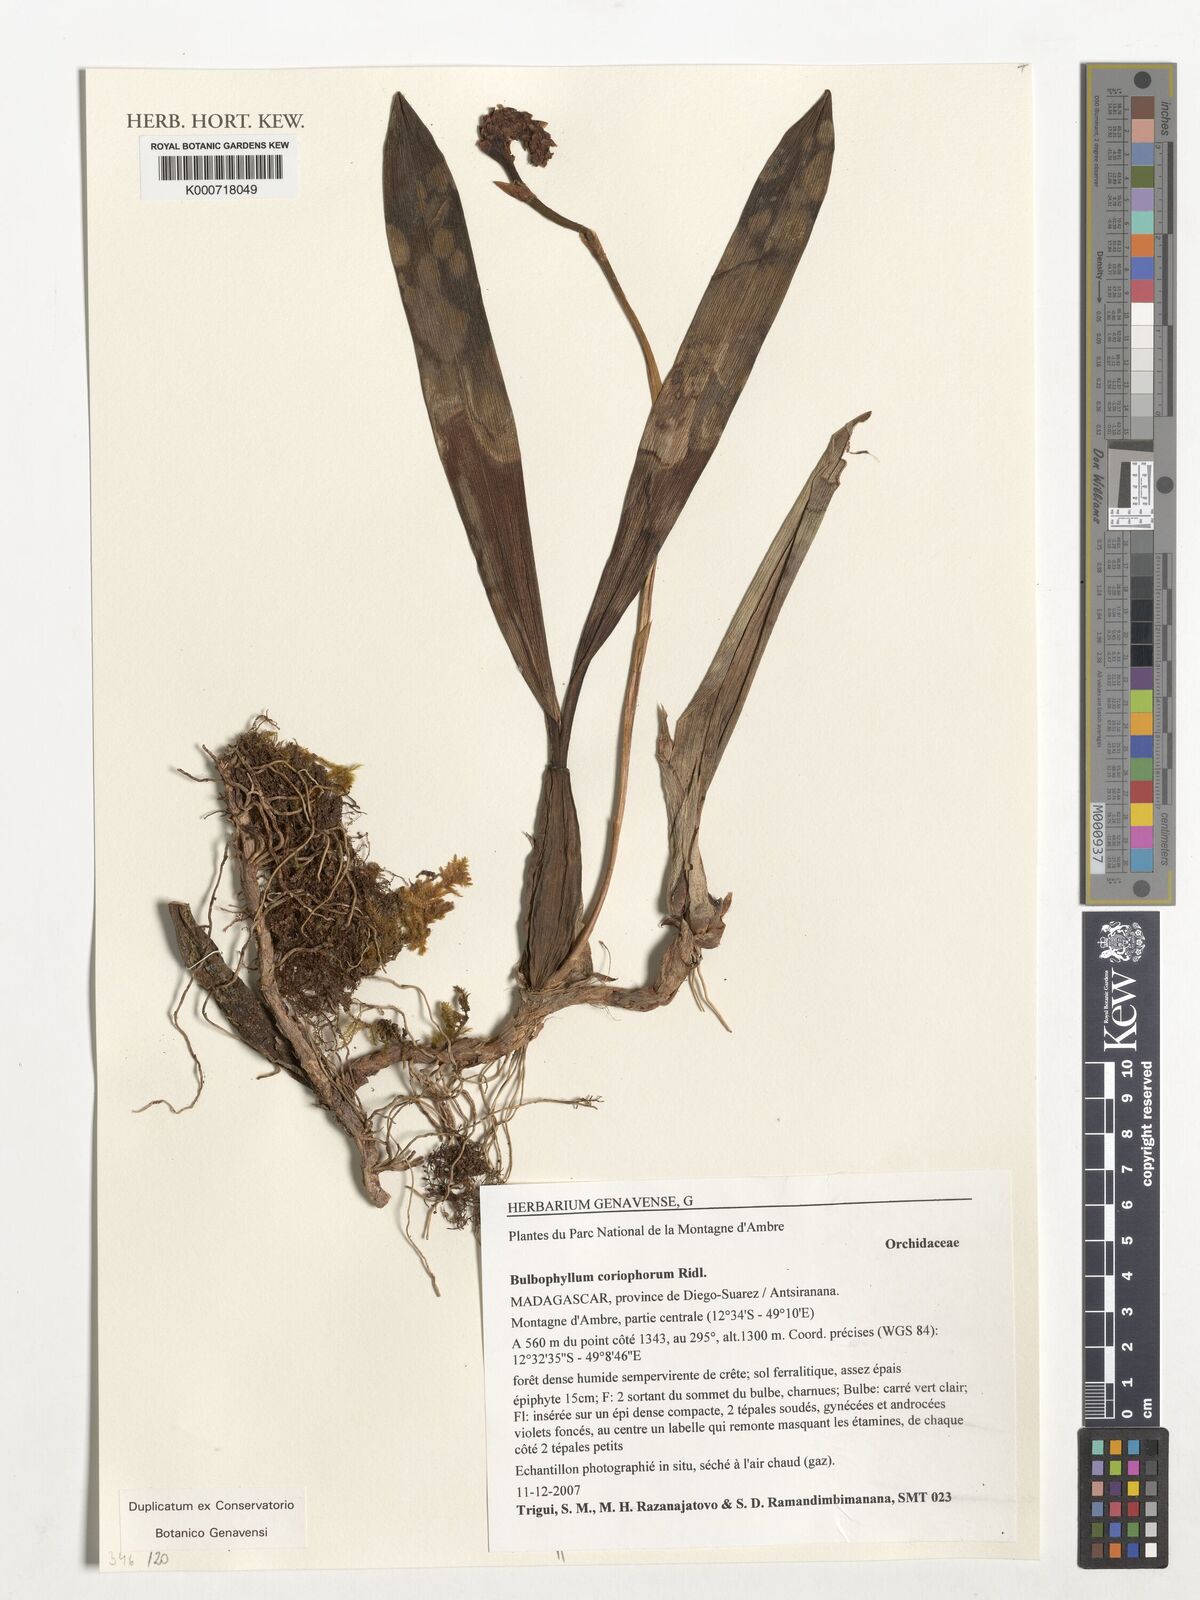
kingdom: Plantae
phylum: Tracheophyta
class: Liliopsida
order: Asparagales
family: Orchidaceae
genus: Bulbophyllum
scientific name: Bulbophyllum coriophorum
